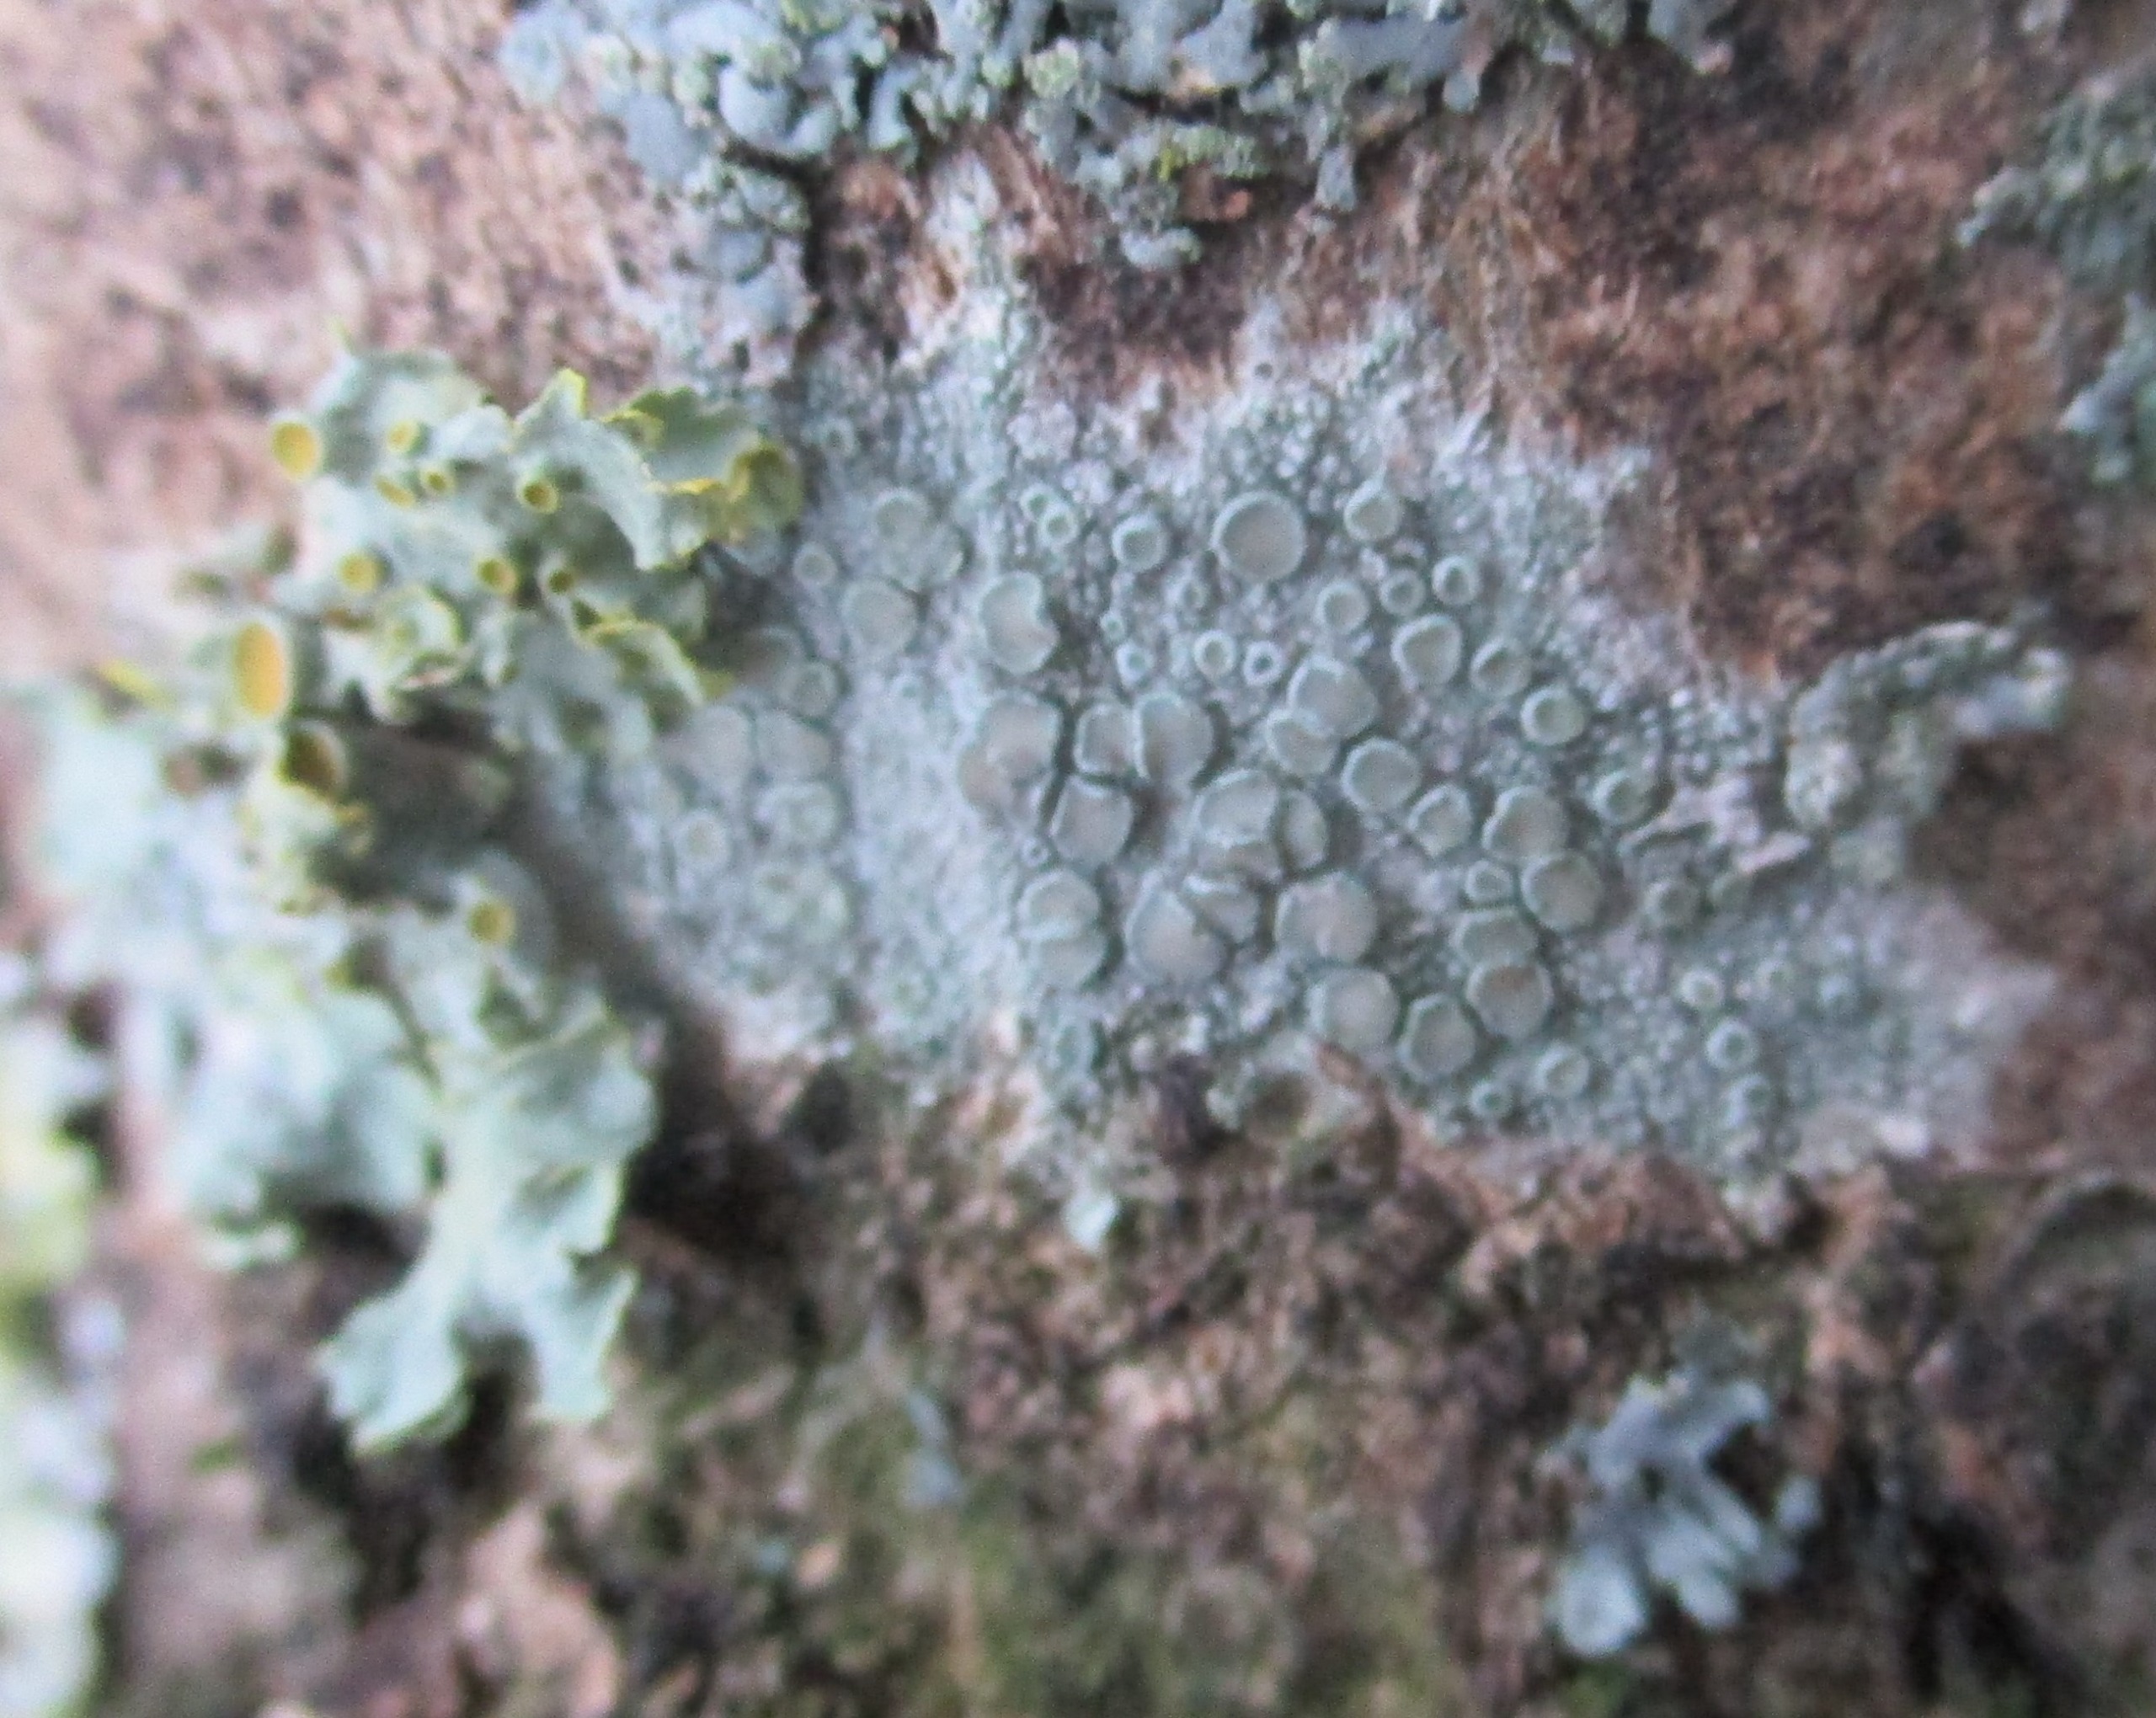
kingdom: Fungi
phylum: Ascomycota
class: Lecanoromycetes
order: Lecanorales
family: Lecanoraceae
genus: Lecanora
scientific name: Lecanora chlarotera
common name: Brun kantskivelav
